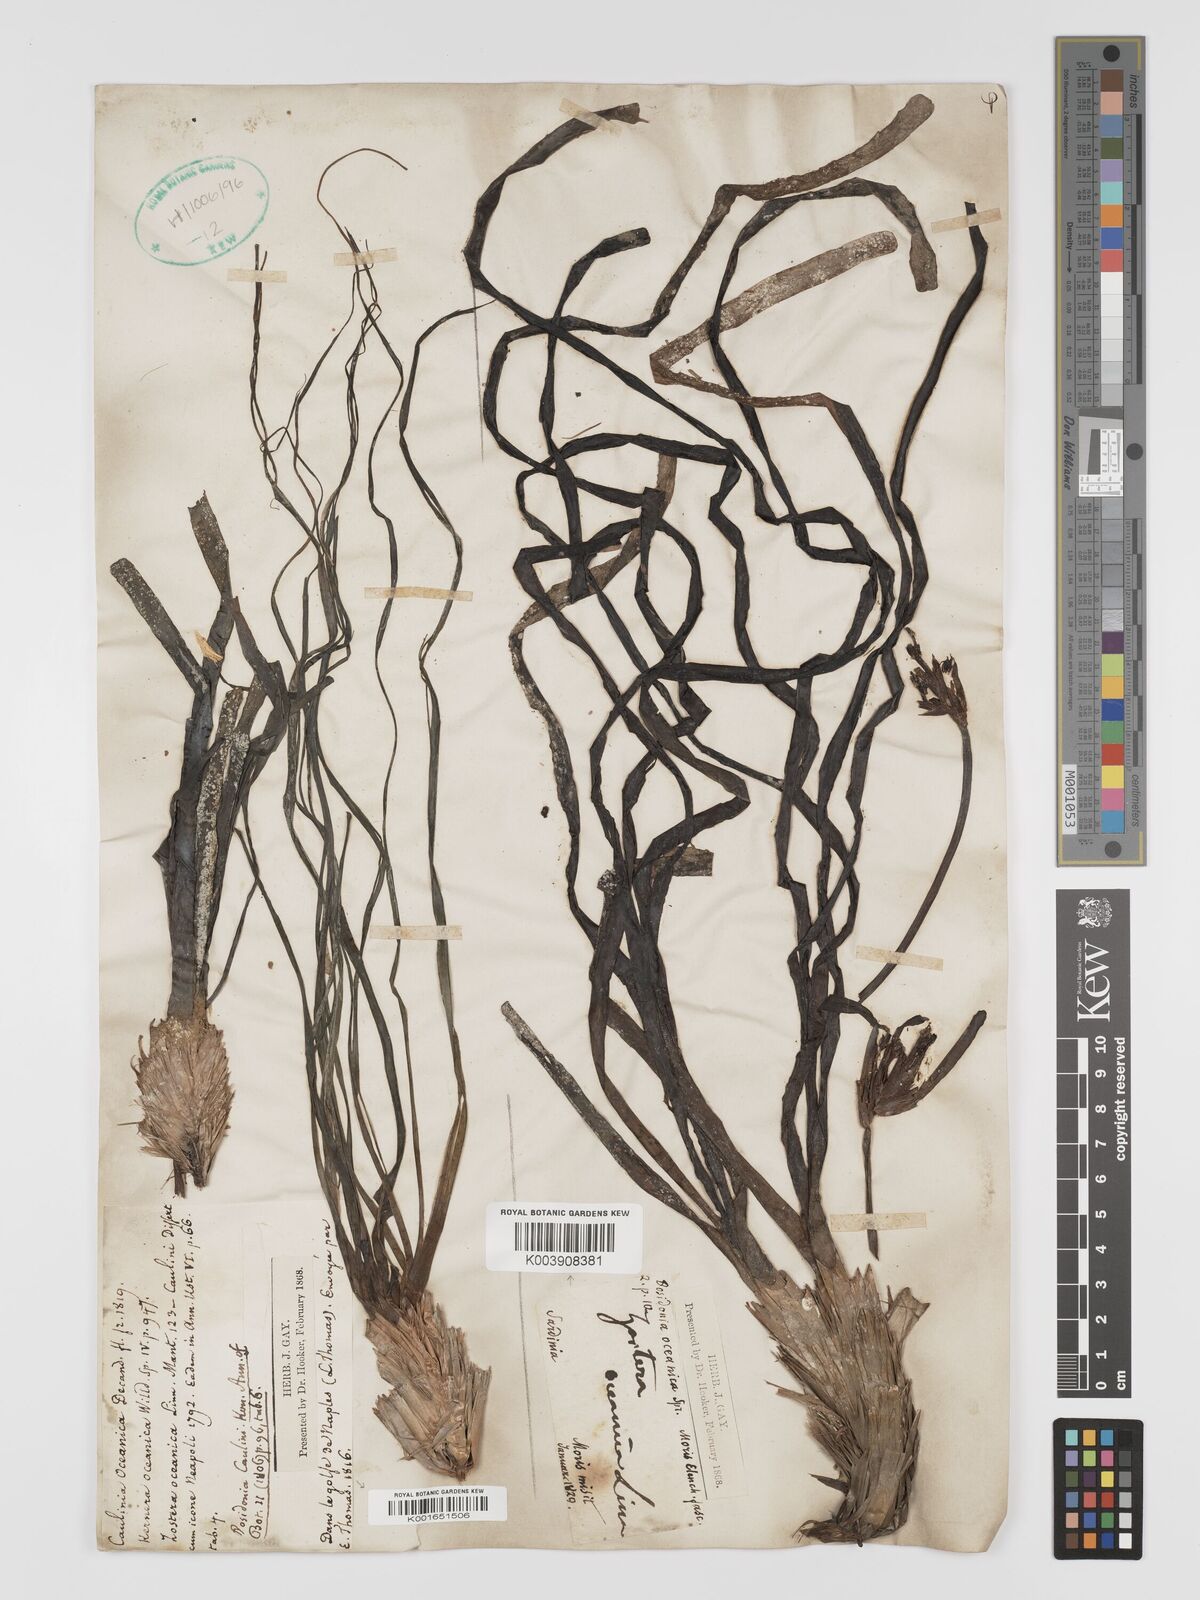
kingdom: Plantae
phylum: Tracheophyta
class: Liliopsida
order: Alismatales
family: Posidoniaceae
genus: Posidonia
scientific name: Posidonia
